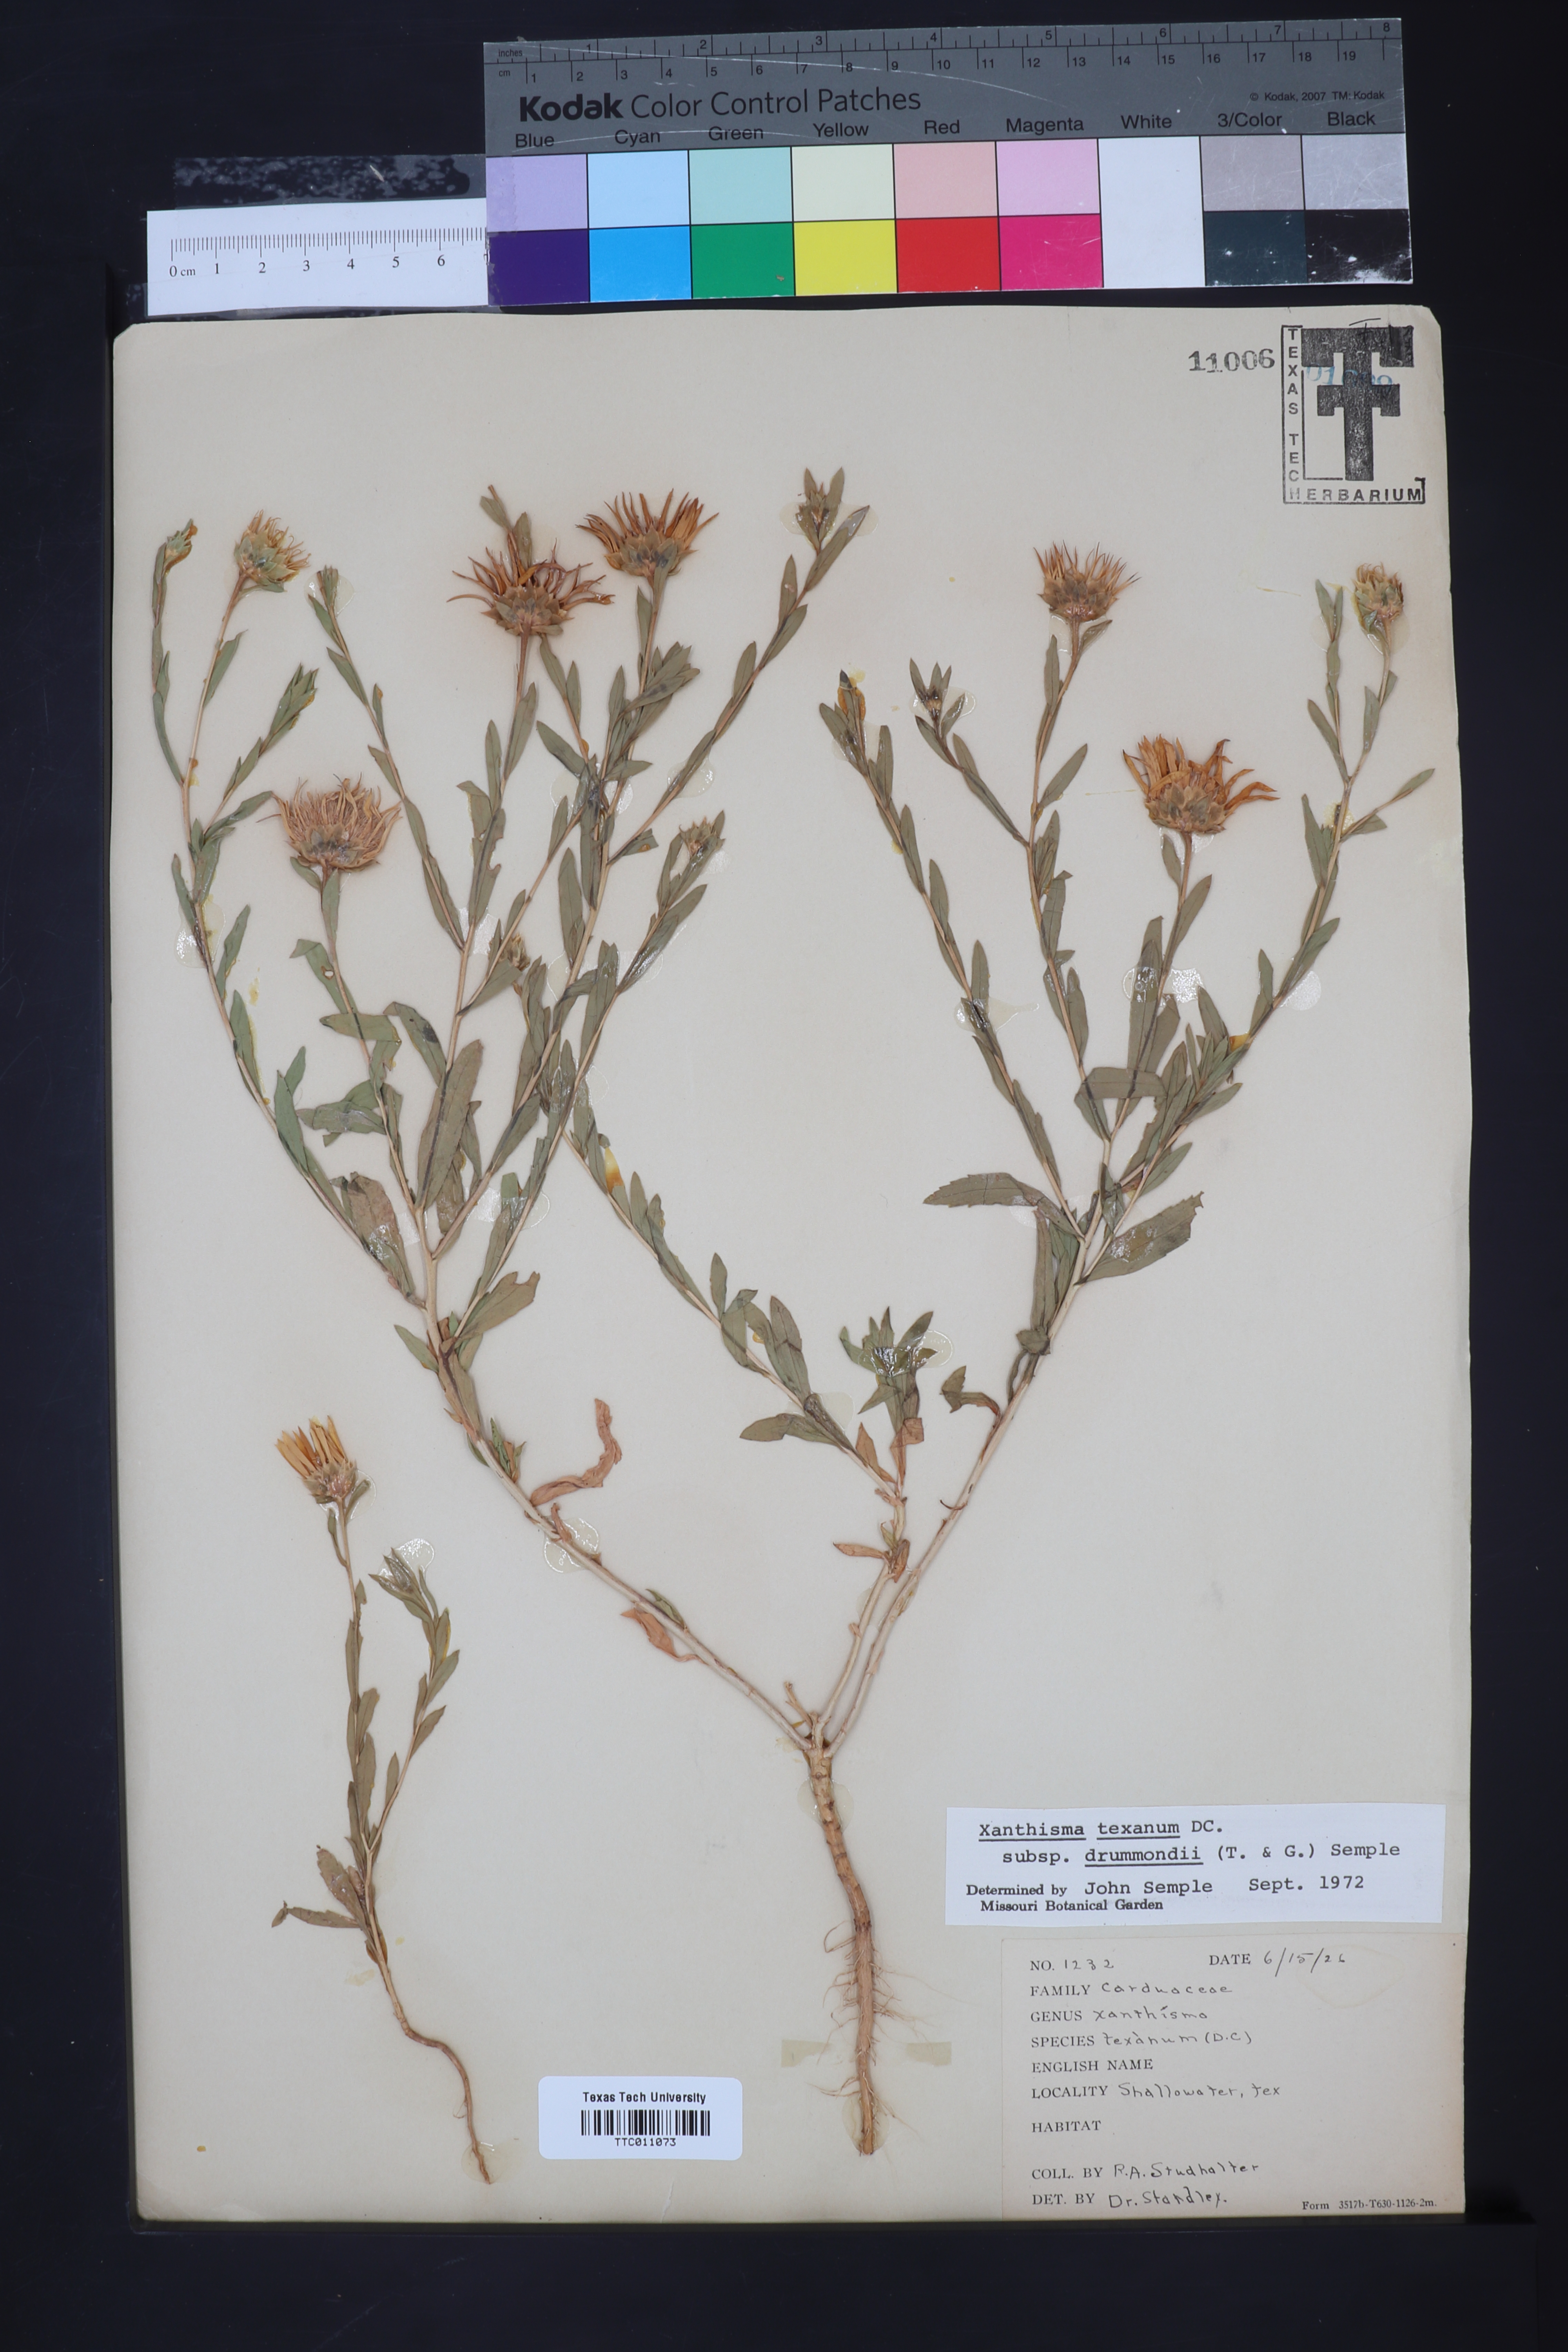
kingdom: Plantae
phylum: Tracheophyta
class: Magnoliopsida
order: Asterales
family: Asteraceae
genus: Xanthisma
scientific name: Xanthisma texanum
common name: Texas sleepy daisy
